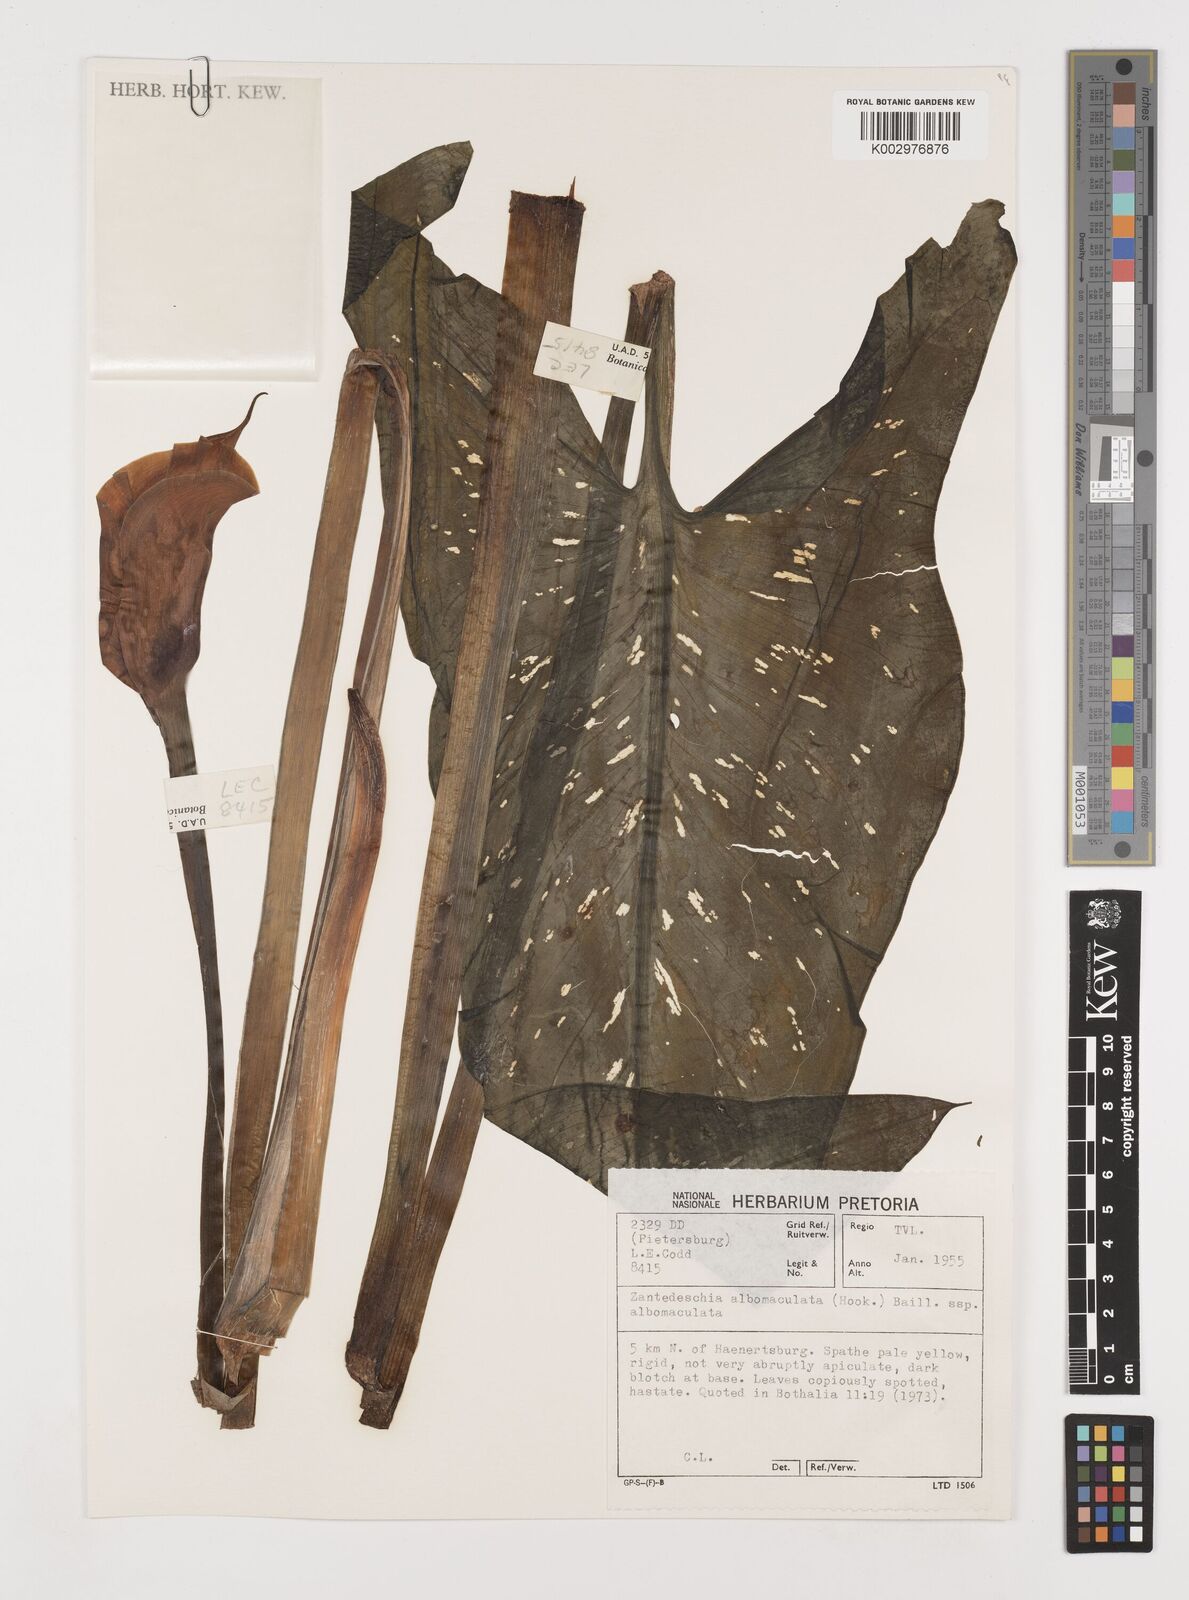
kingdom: Plantae
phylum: Tracheophyta
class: Liliopsida
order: Alismatales
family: Araceae
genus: Zantedeschia
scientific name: Zantedeschia albomaculata
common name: Spotted calla lily
